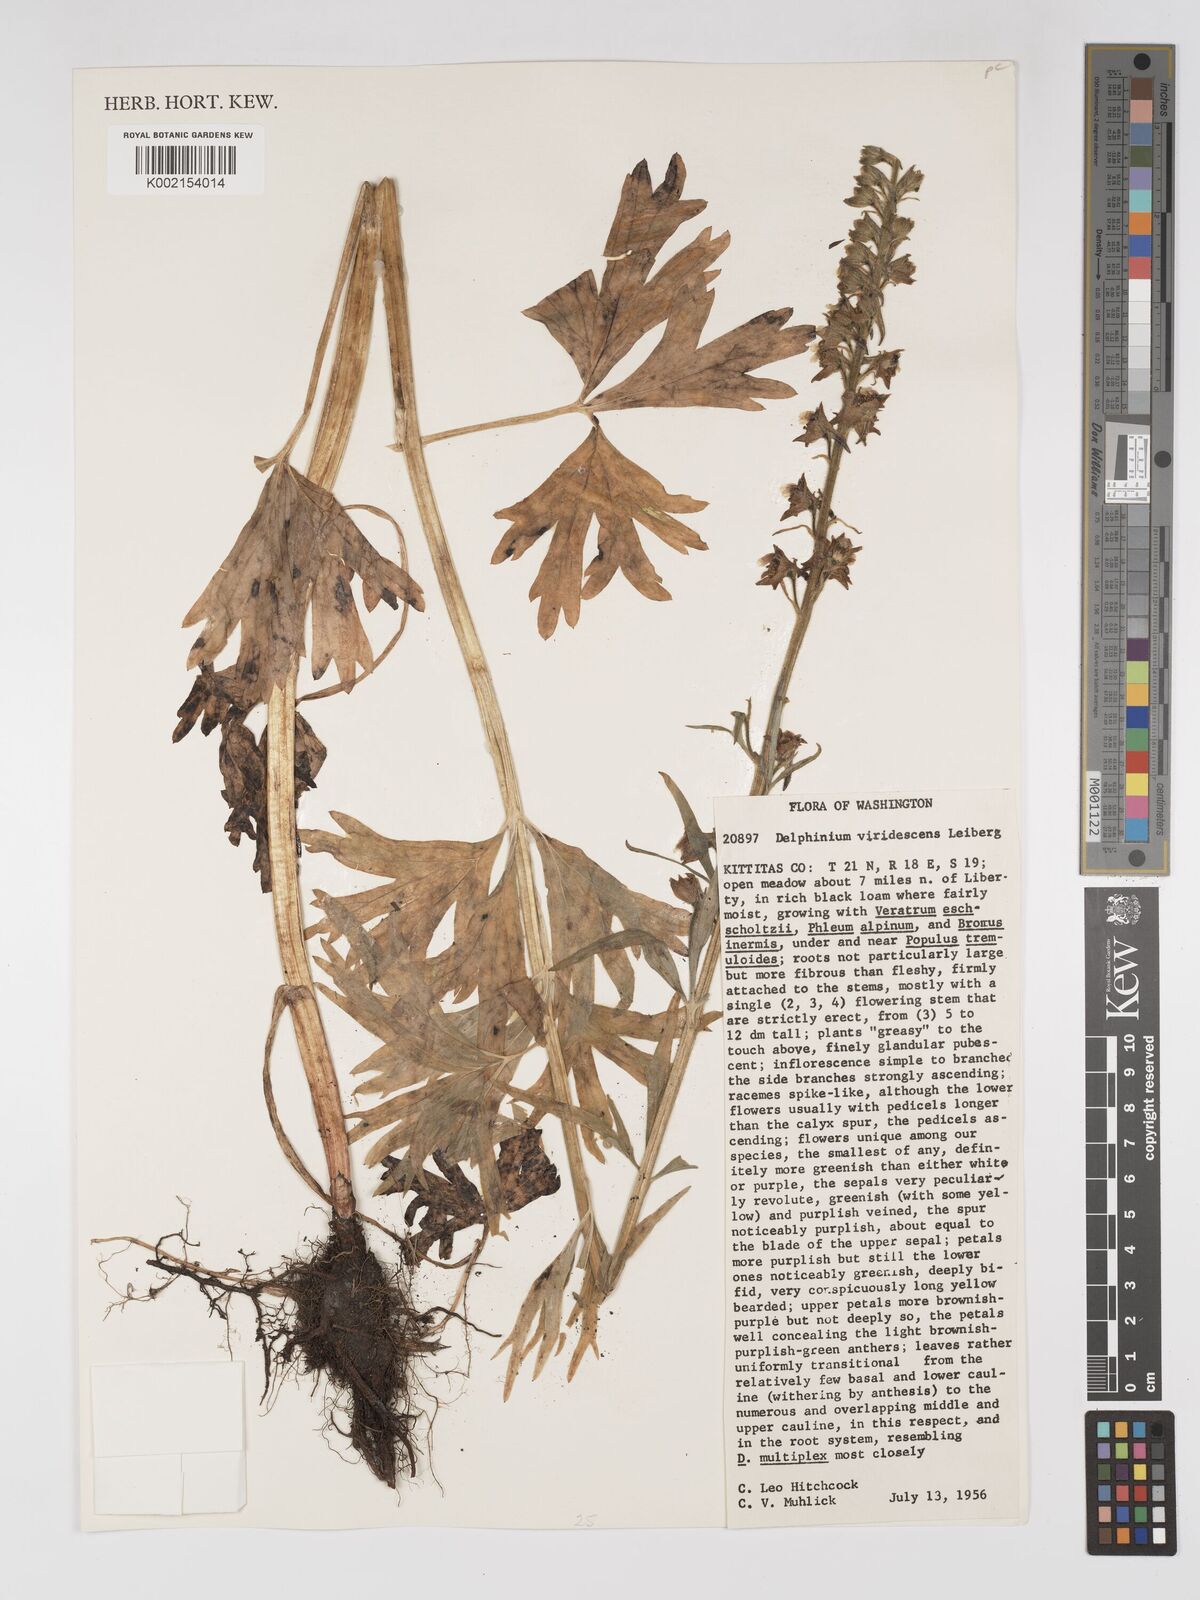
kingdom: Plantae
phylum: Tracheophyta
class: Magnoliopsida
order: Ranunculales
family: Ranunculaceae
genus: Delphinium
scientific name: Delphinium viridescens
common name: Wenatchee larkspur
